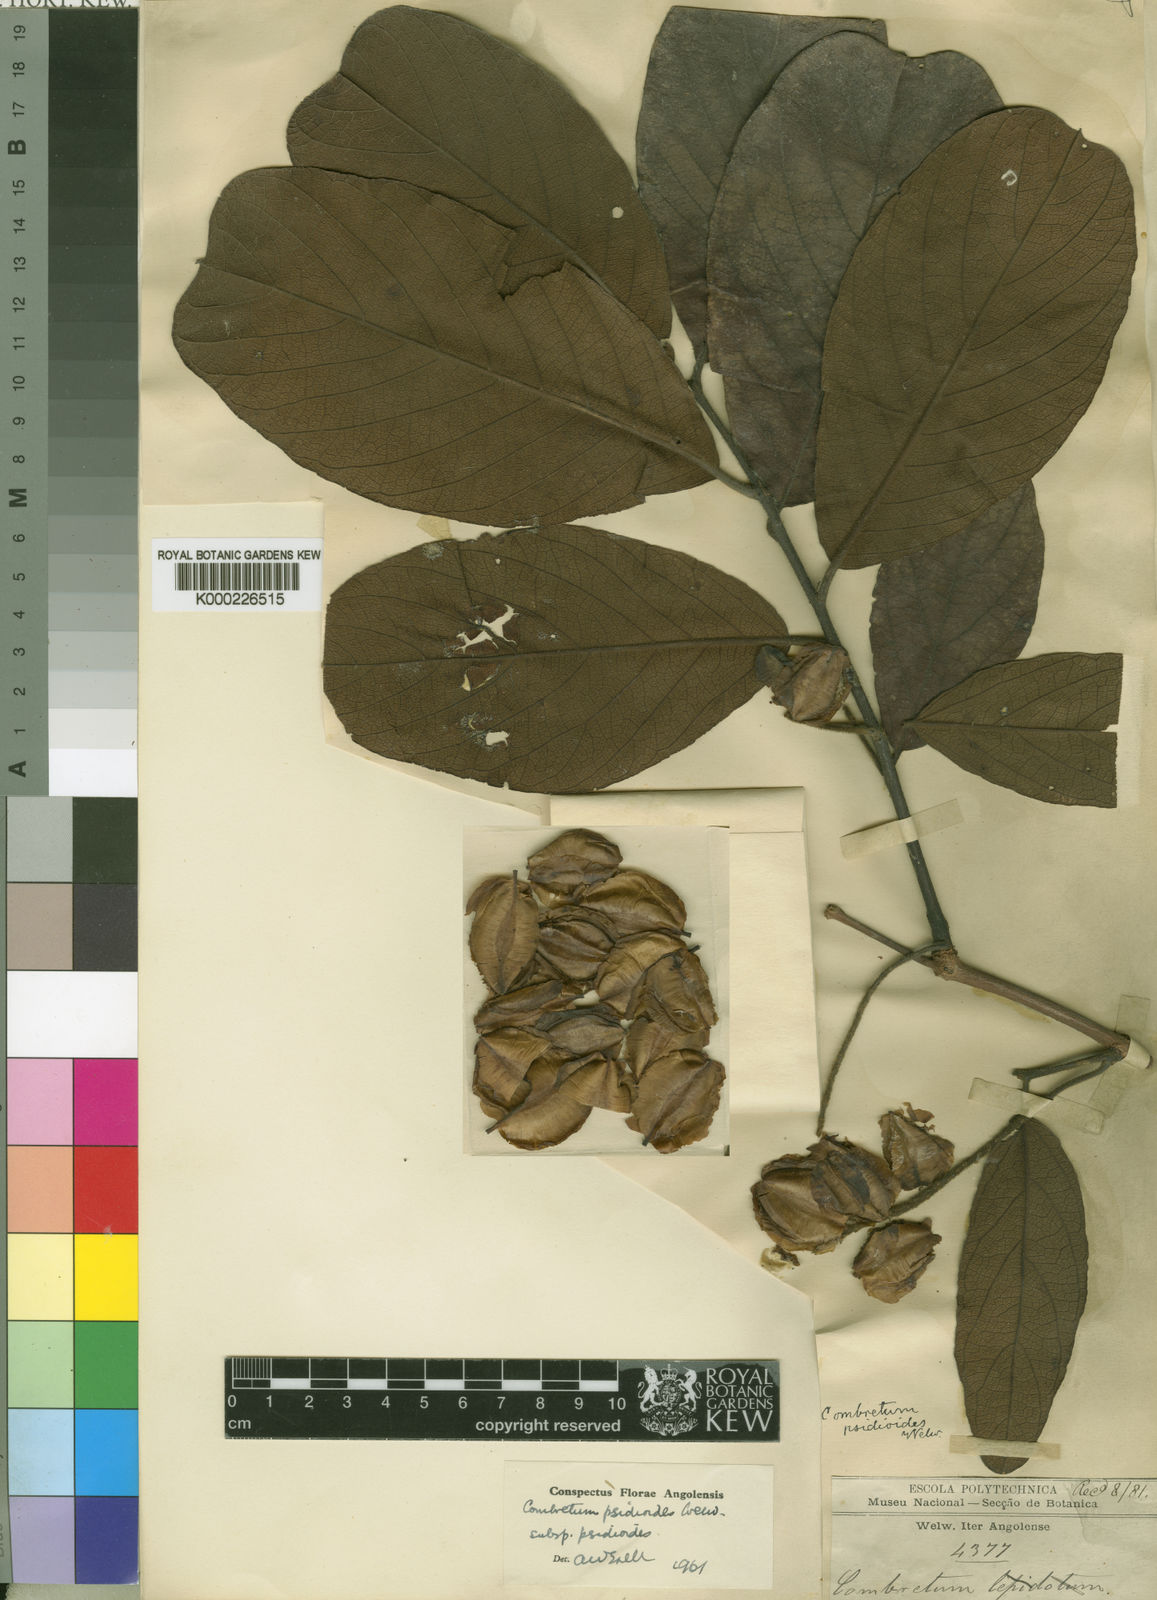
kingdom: Plantae
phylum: Tracheophyta
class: Magnoliopsida
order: Myrtales
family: Combretaceae
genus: Combretum
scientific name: Combretum psidioides
